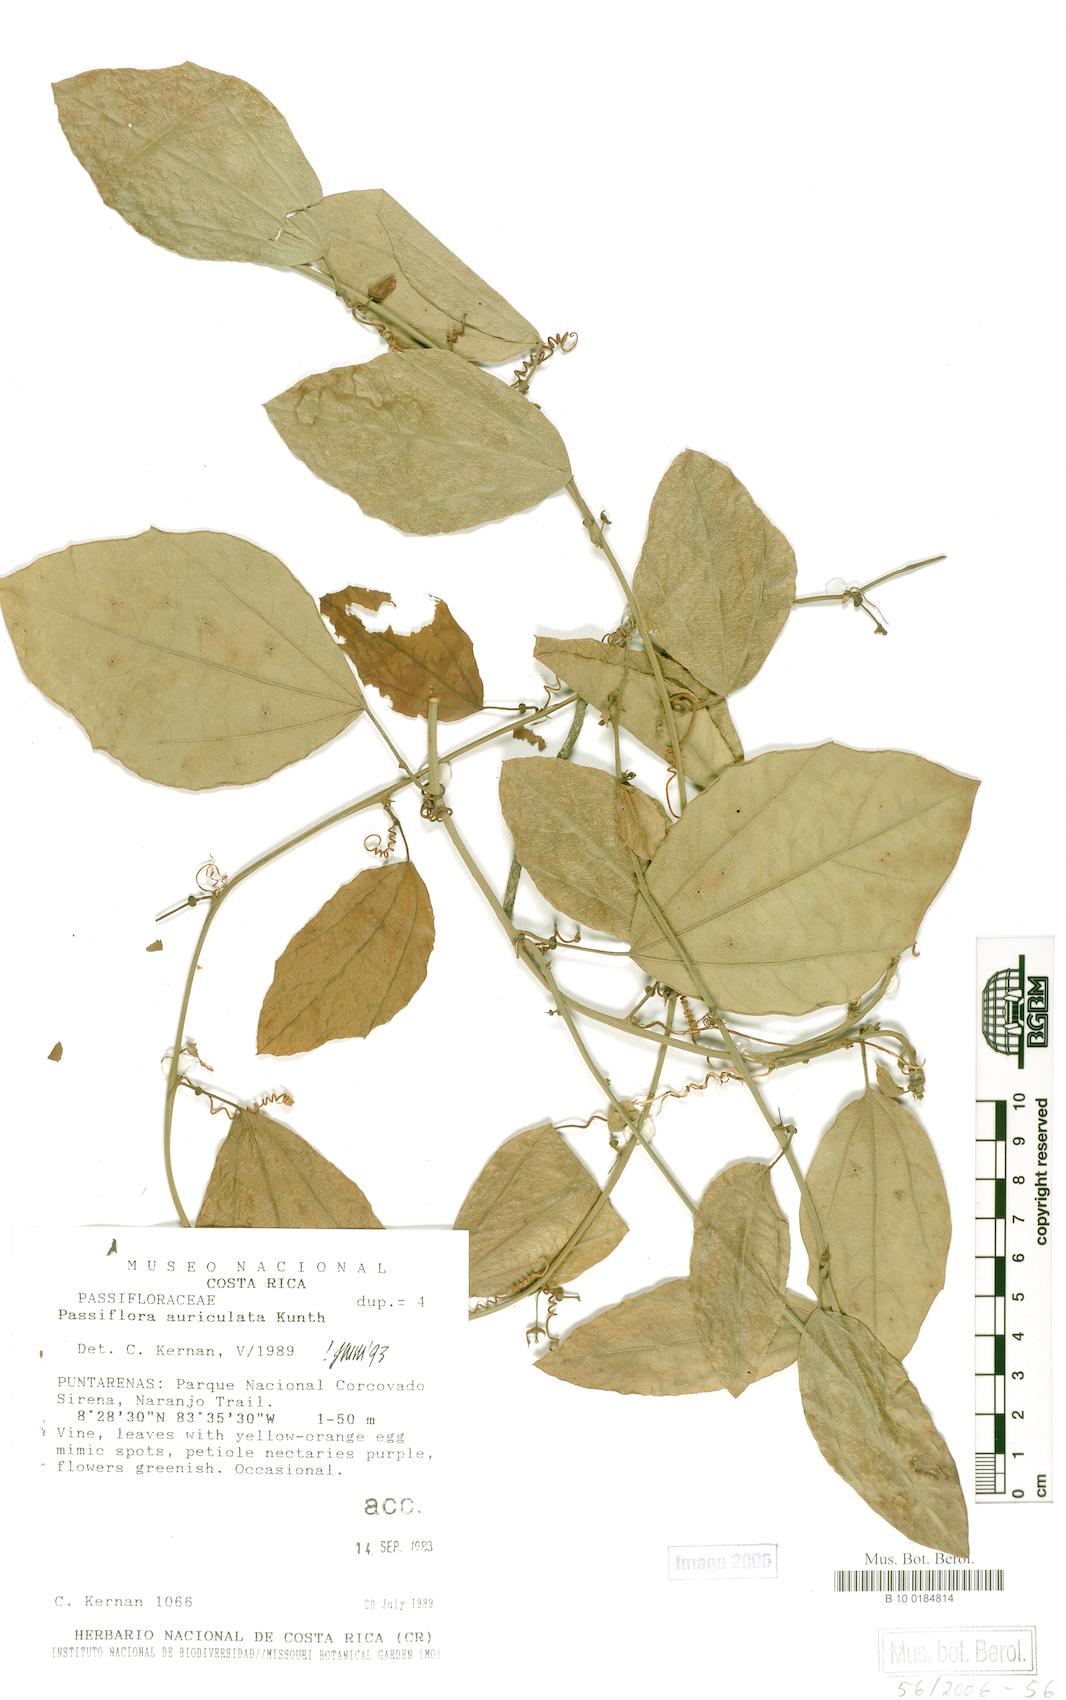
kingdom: Plantae
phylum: Tracheophyta
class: Magnoliopsida
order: Malpighiales
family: Passifloraceae
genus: Passiflora
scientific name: Passiflora auriculata
